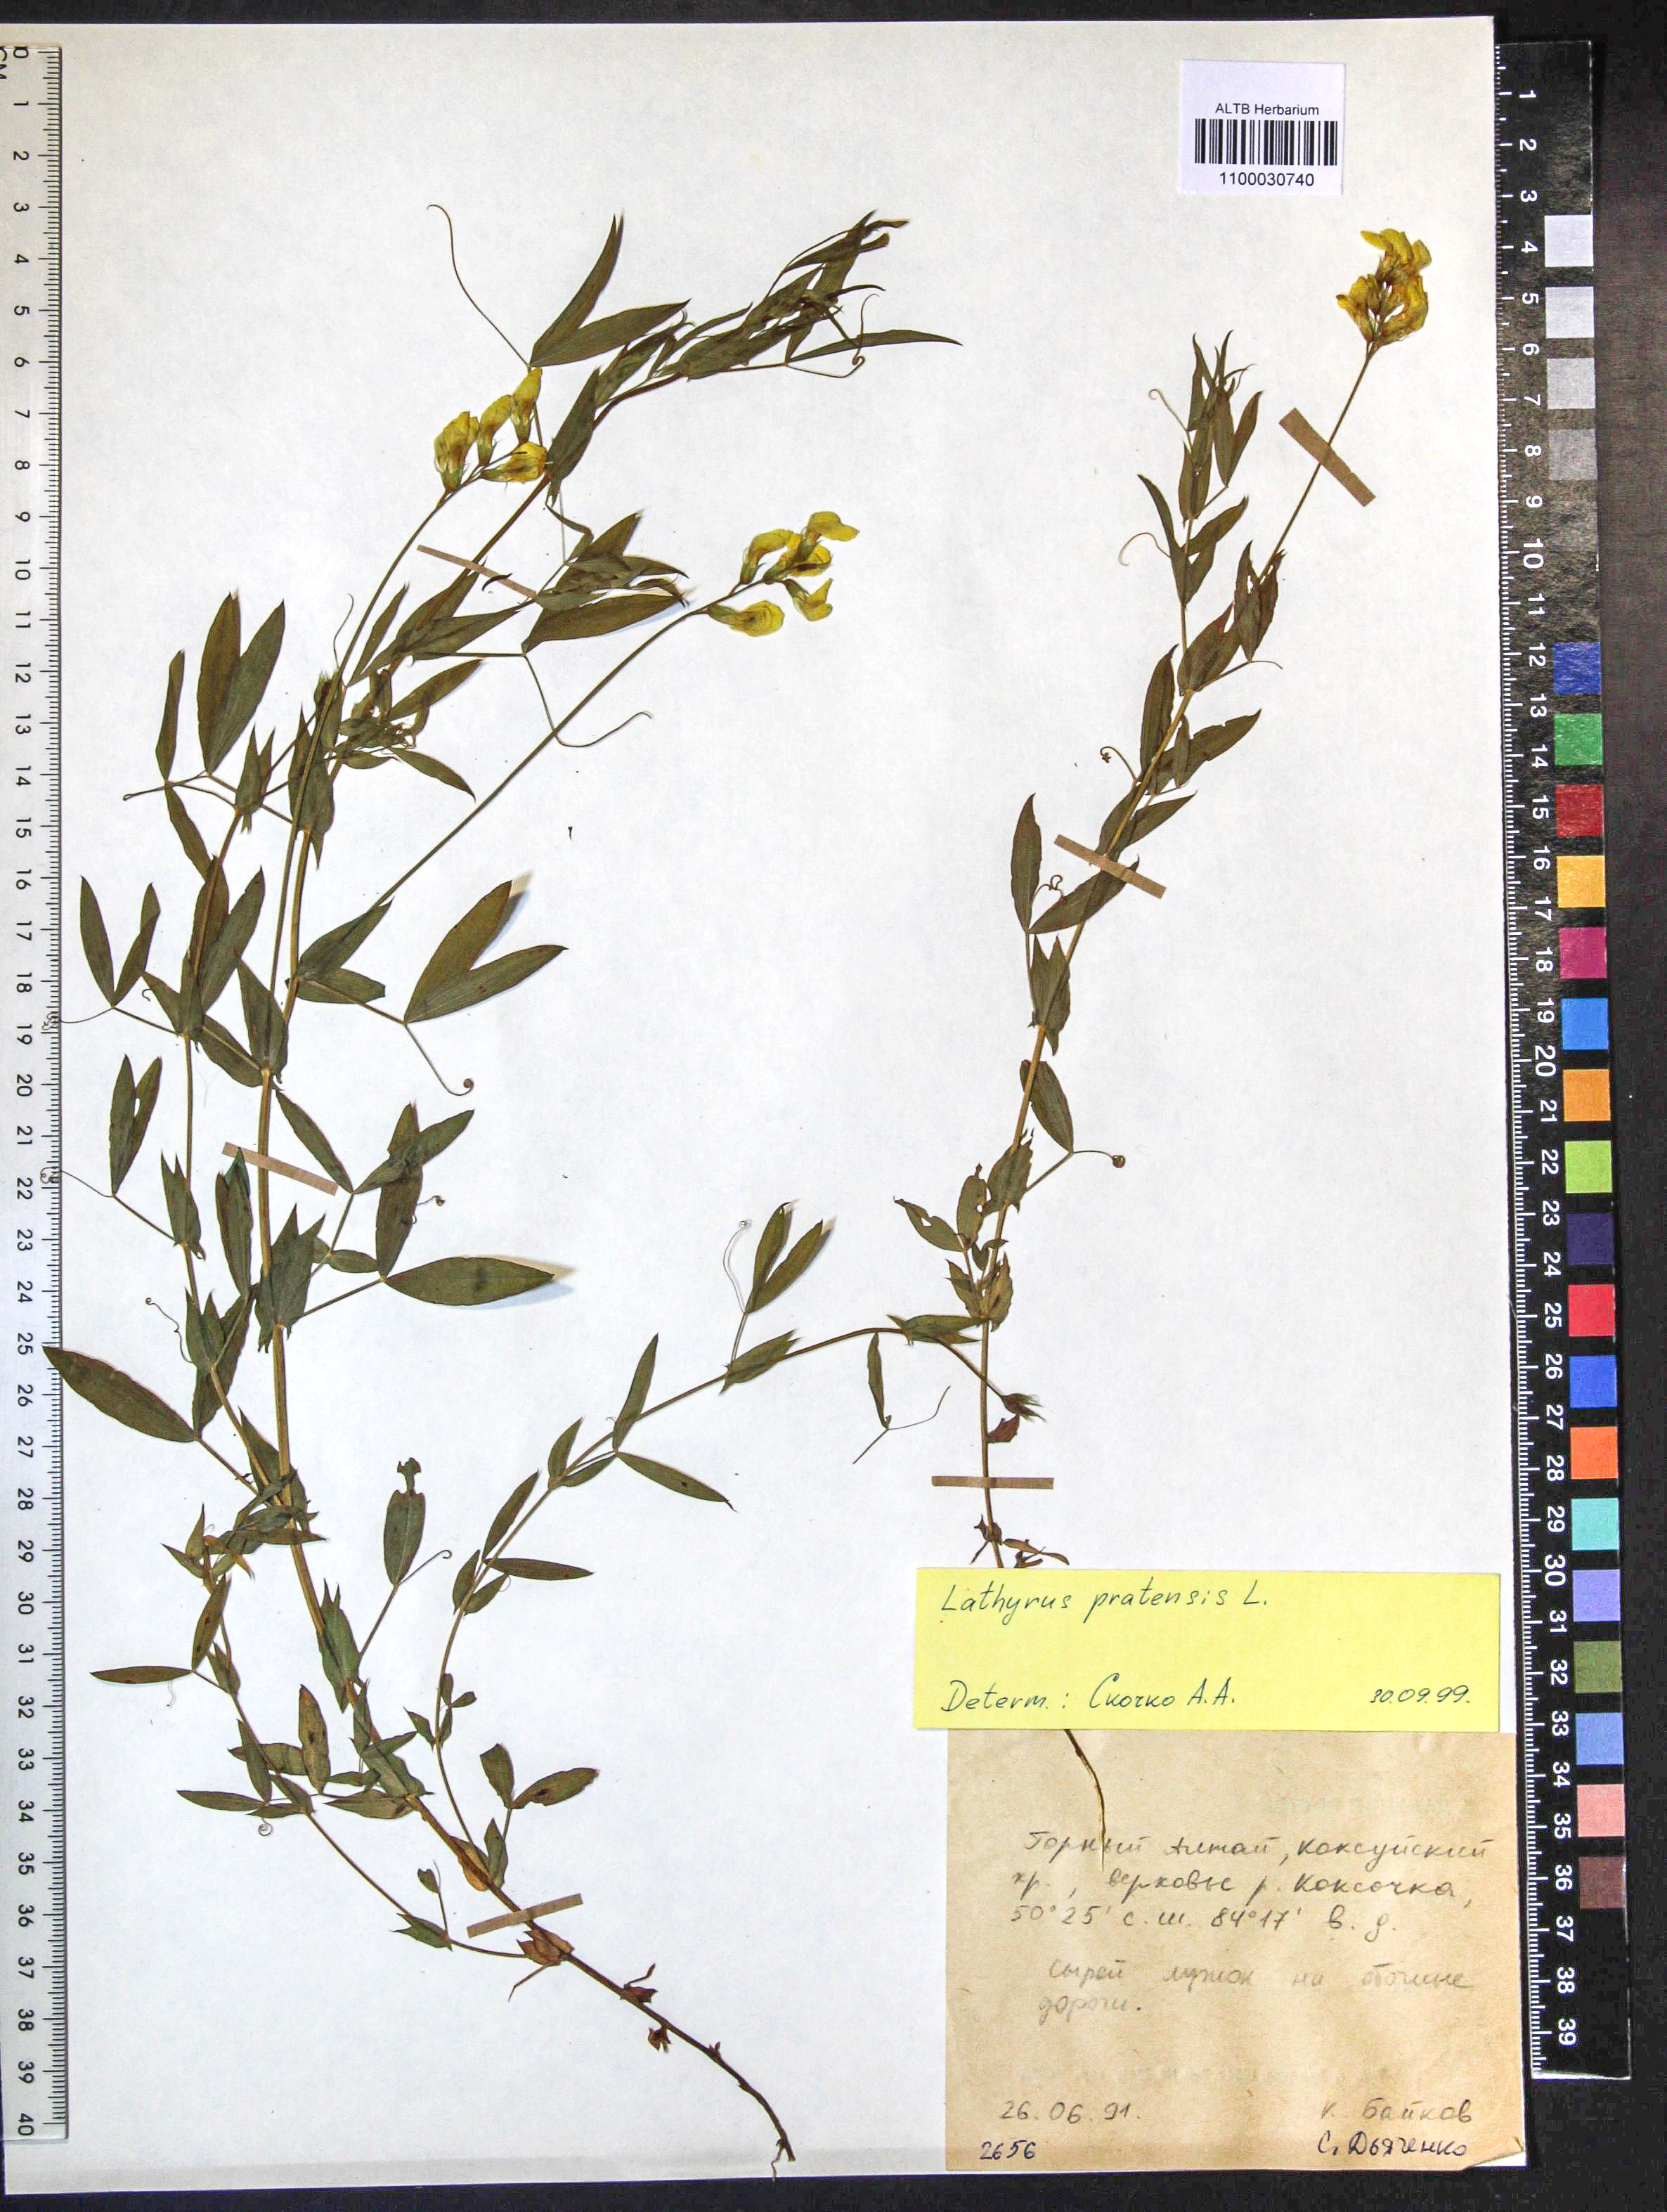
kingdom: Plantae
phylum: Tracheophyta
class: Magnoliopsida
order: Fabales
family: Fabaceae
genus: Lathyrus
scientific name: Lathyrus pratensis
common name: Meadow vetchling
